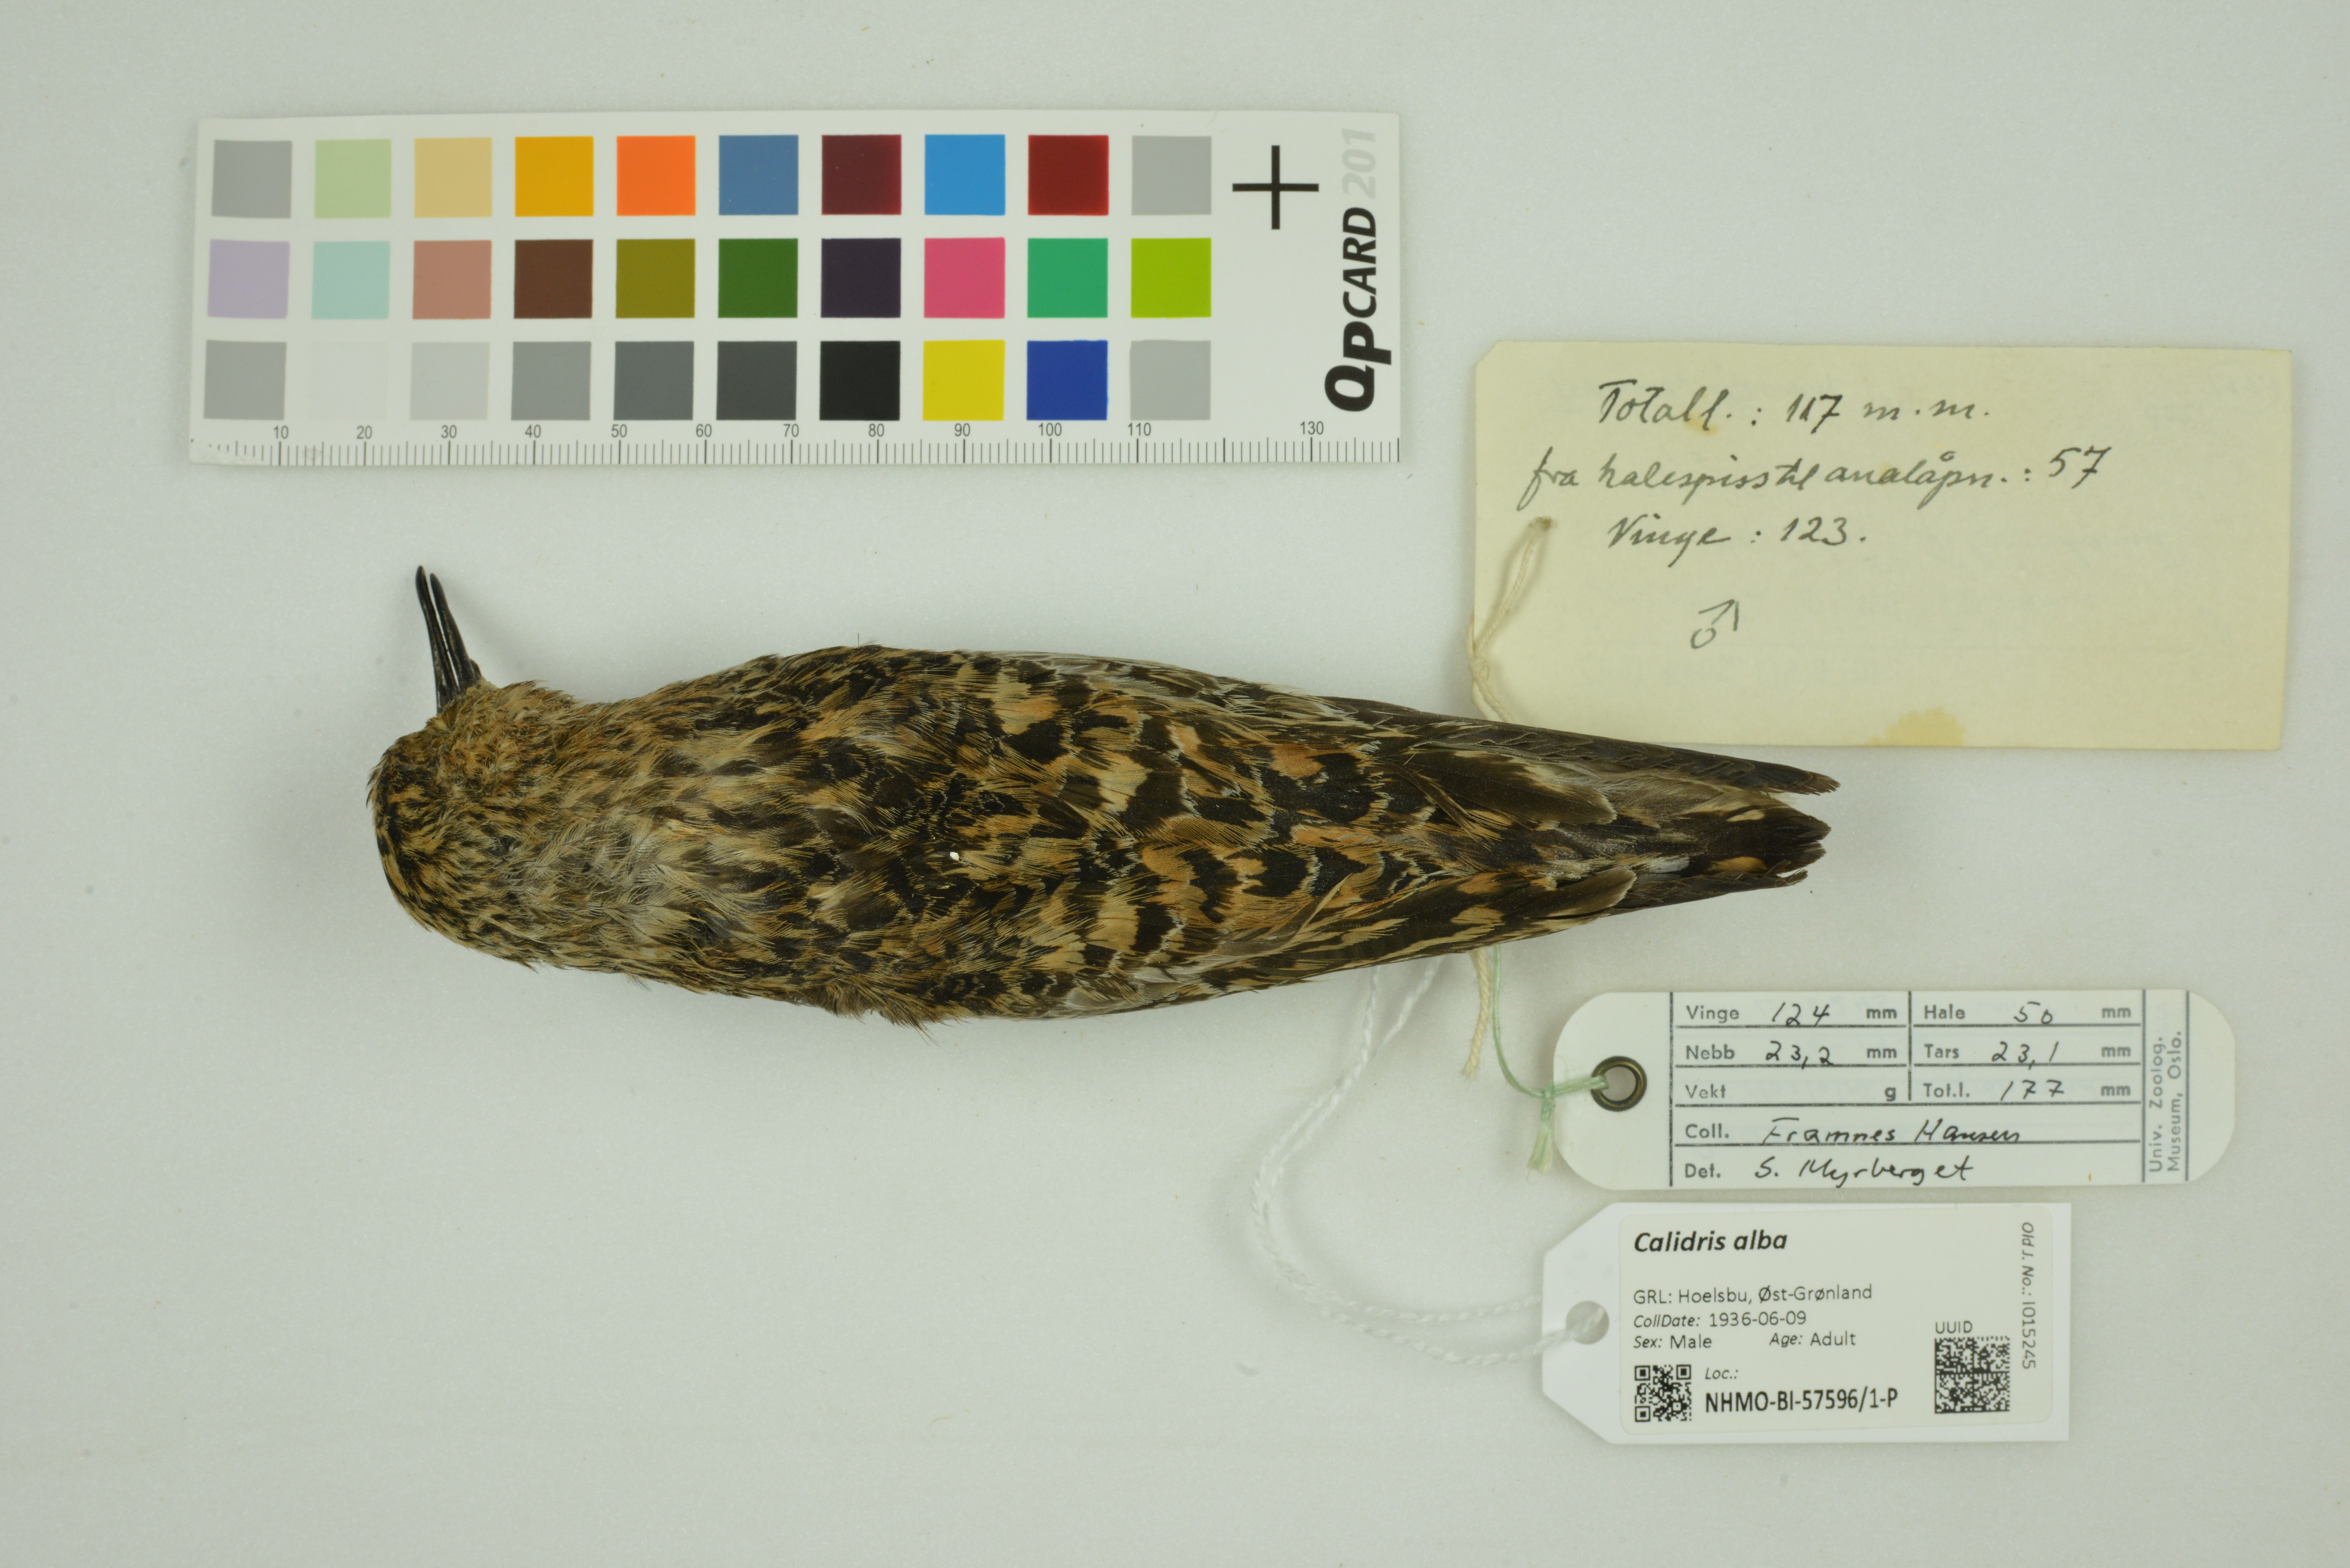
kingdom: Animalia
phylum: Chordata
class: Aves
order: Charadriiformes
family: Scolopacidae
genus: Calidris
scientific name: Calidris alba
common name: Sanderling
